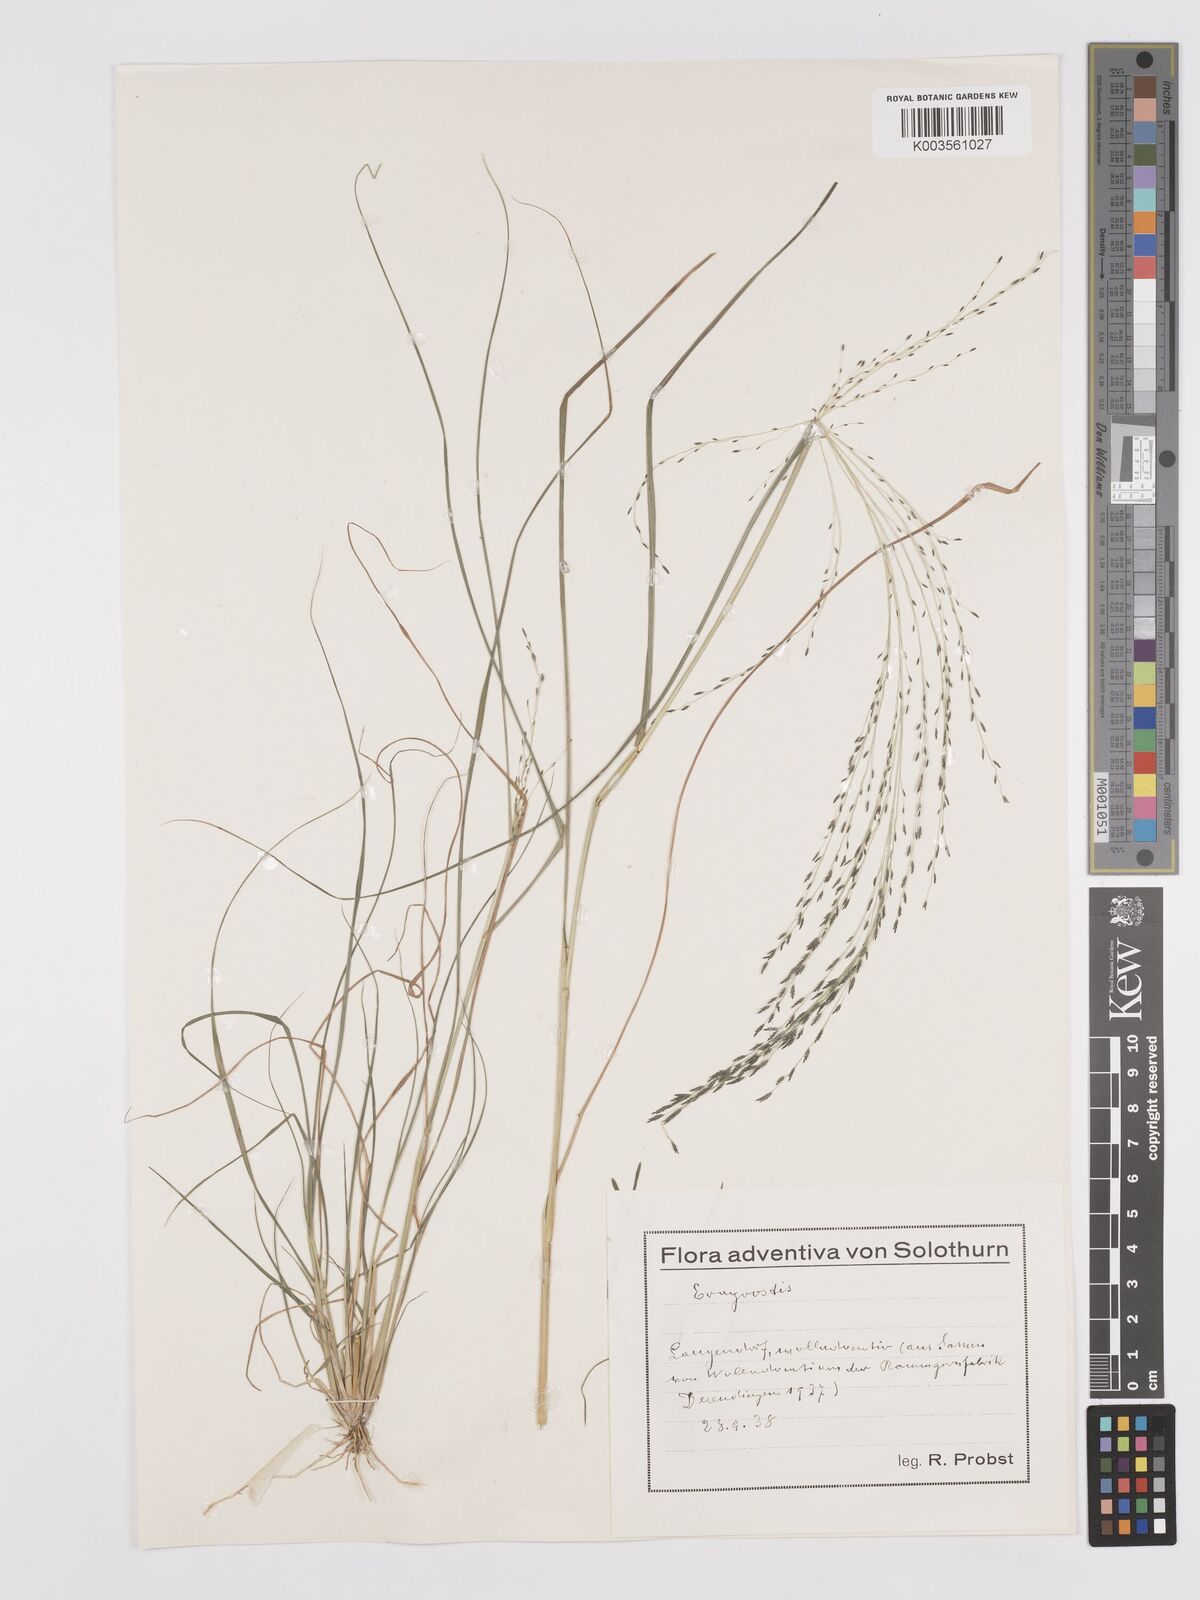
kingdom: Plantae
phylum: Tracheophyta
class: Liliopsida
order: Poales
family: Poaceae
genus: Eragrostis
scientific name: Eragrostis
